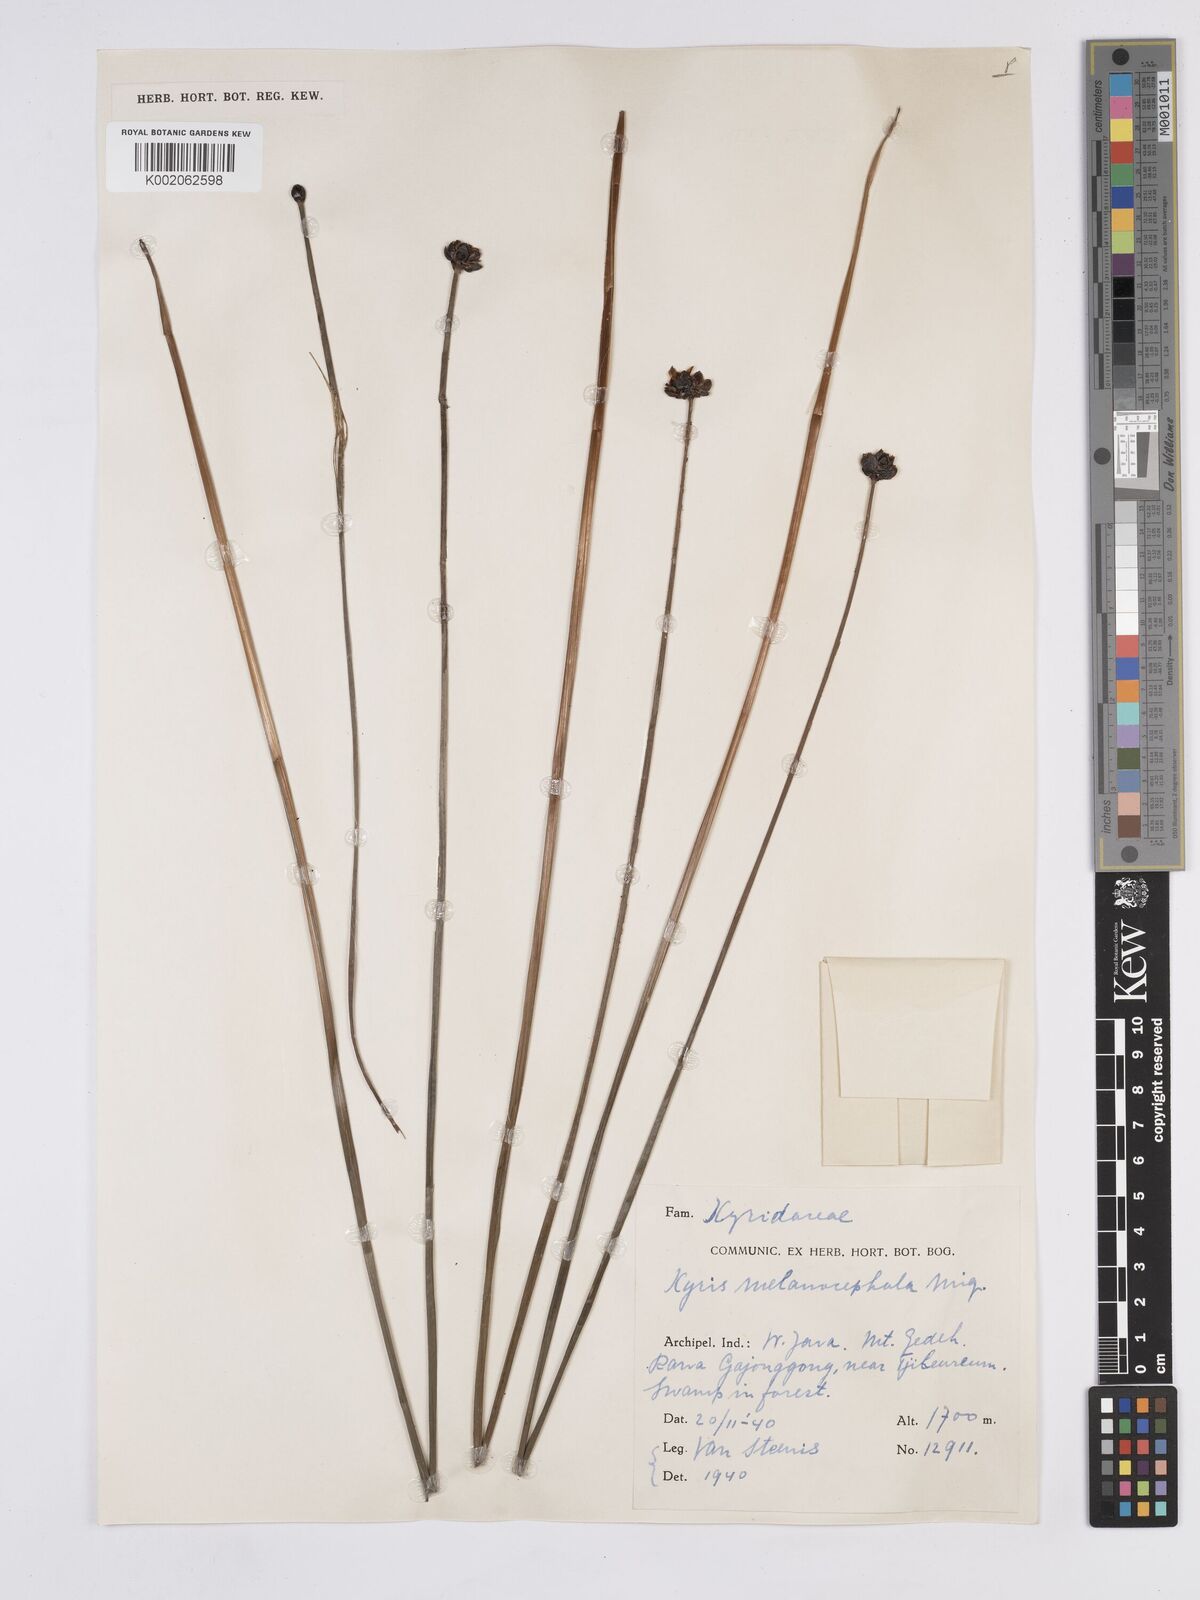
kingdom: Plantae
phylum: Tracheophyta
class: Liliopsida
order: Poales
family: Xyridaceae
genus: Xyris
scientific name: Xyris capensis
